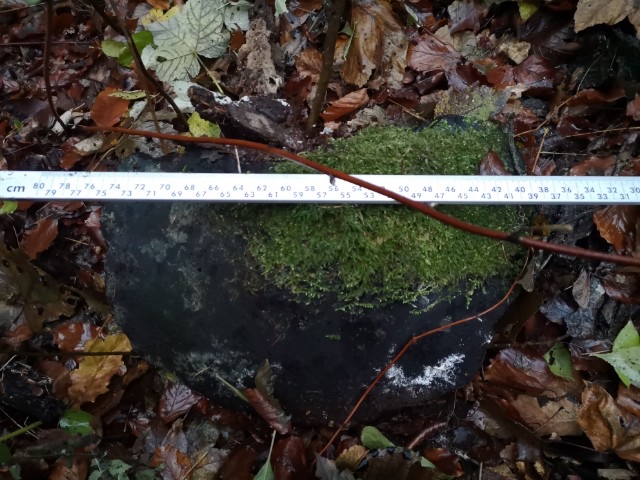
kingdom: Fungi
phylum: Basidiomycota
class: Agaricomycetes
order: Polyporales
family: Polyporaceae
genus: Fomes
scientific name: Fomes fomentarius
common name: tøndersvamp
